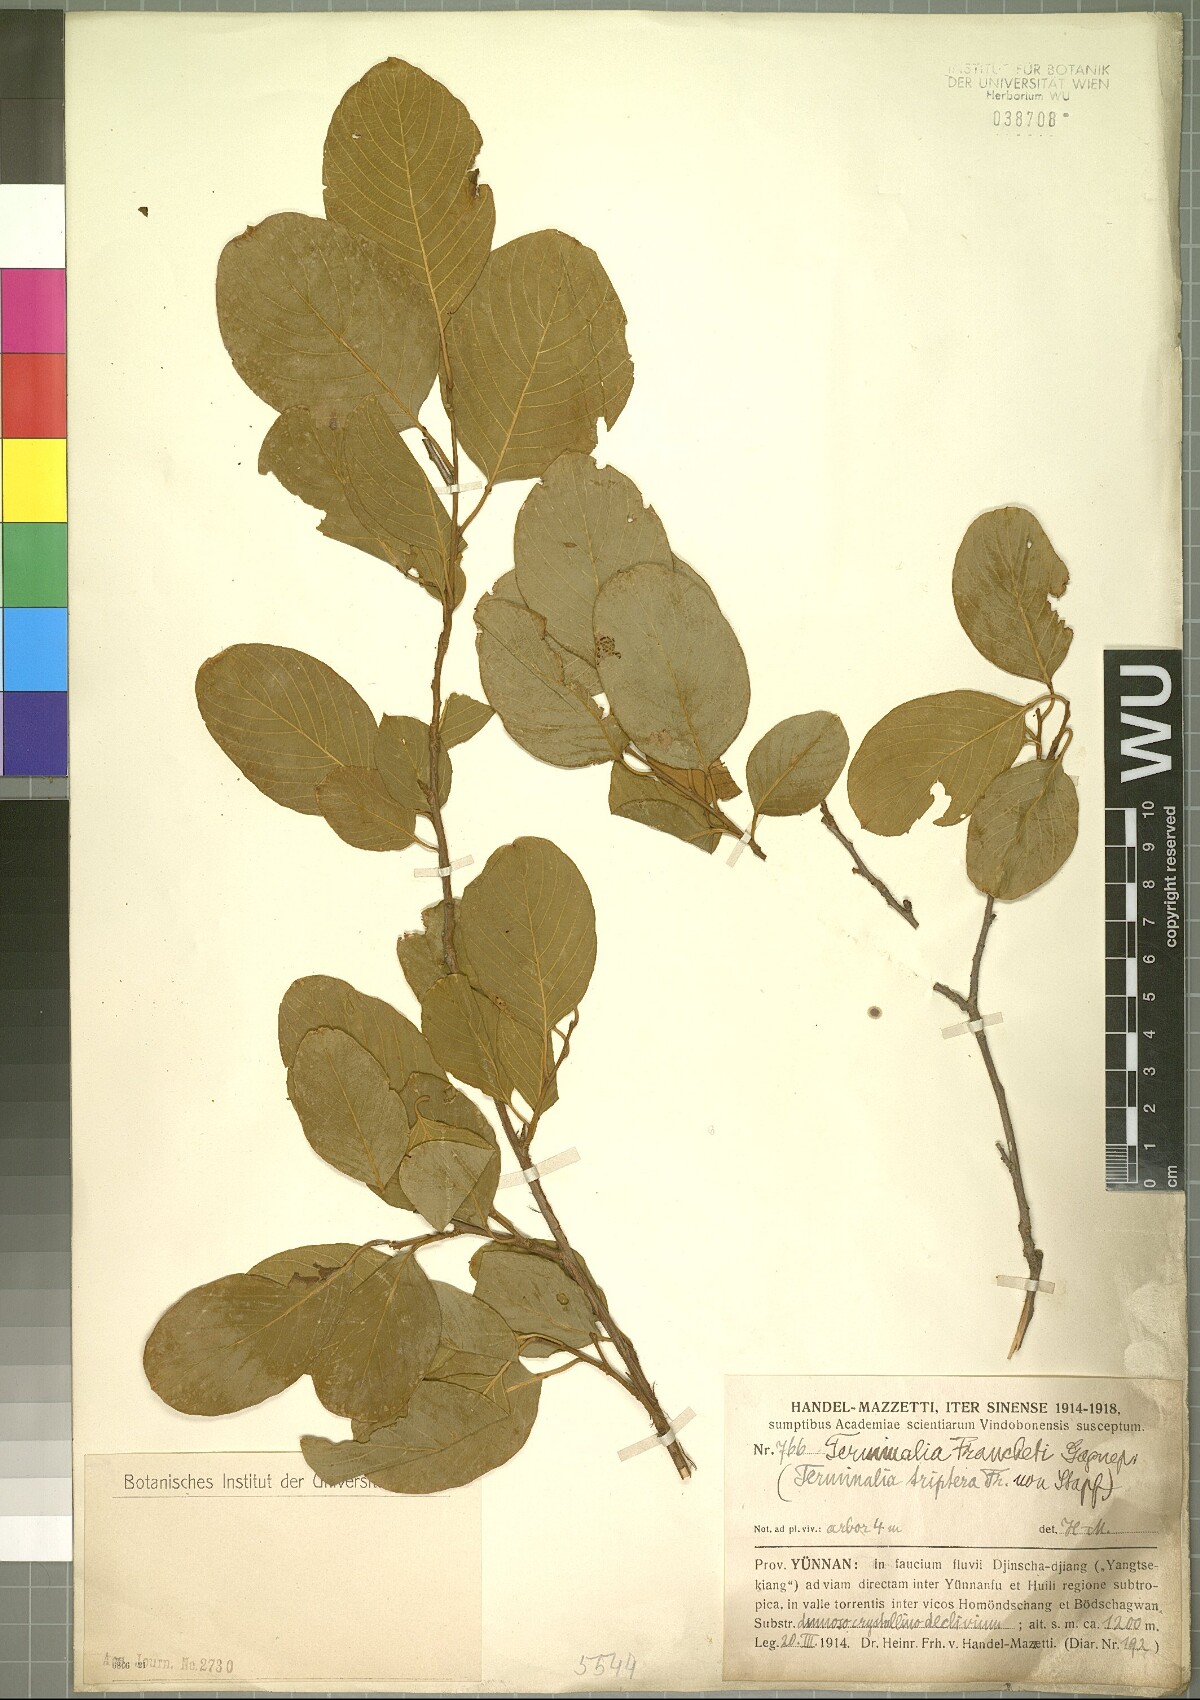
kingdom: Plantae
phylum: Tracheophyta
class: Magnoliopsida
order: Myrtales
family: Combretaceae
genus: Terminalia
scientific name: Terminalia franchetii
